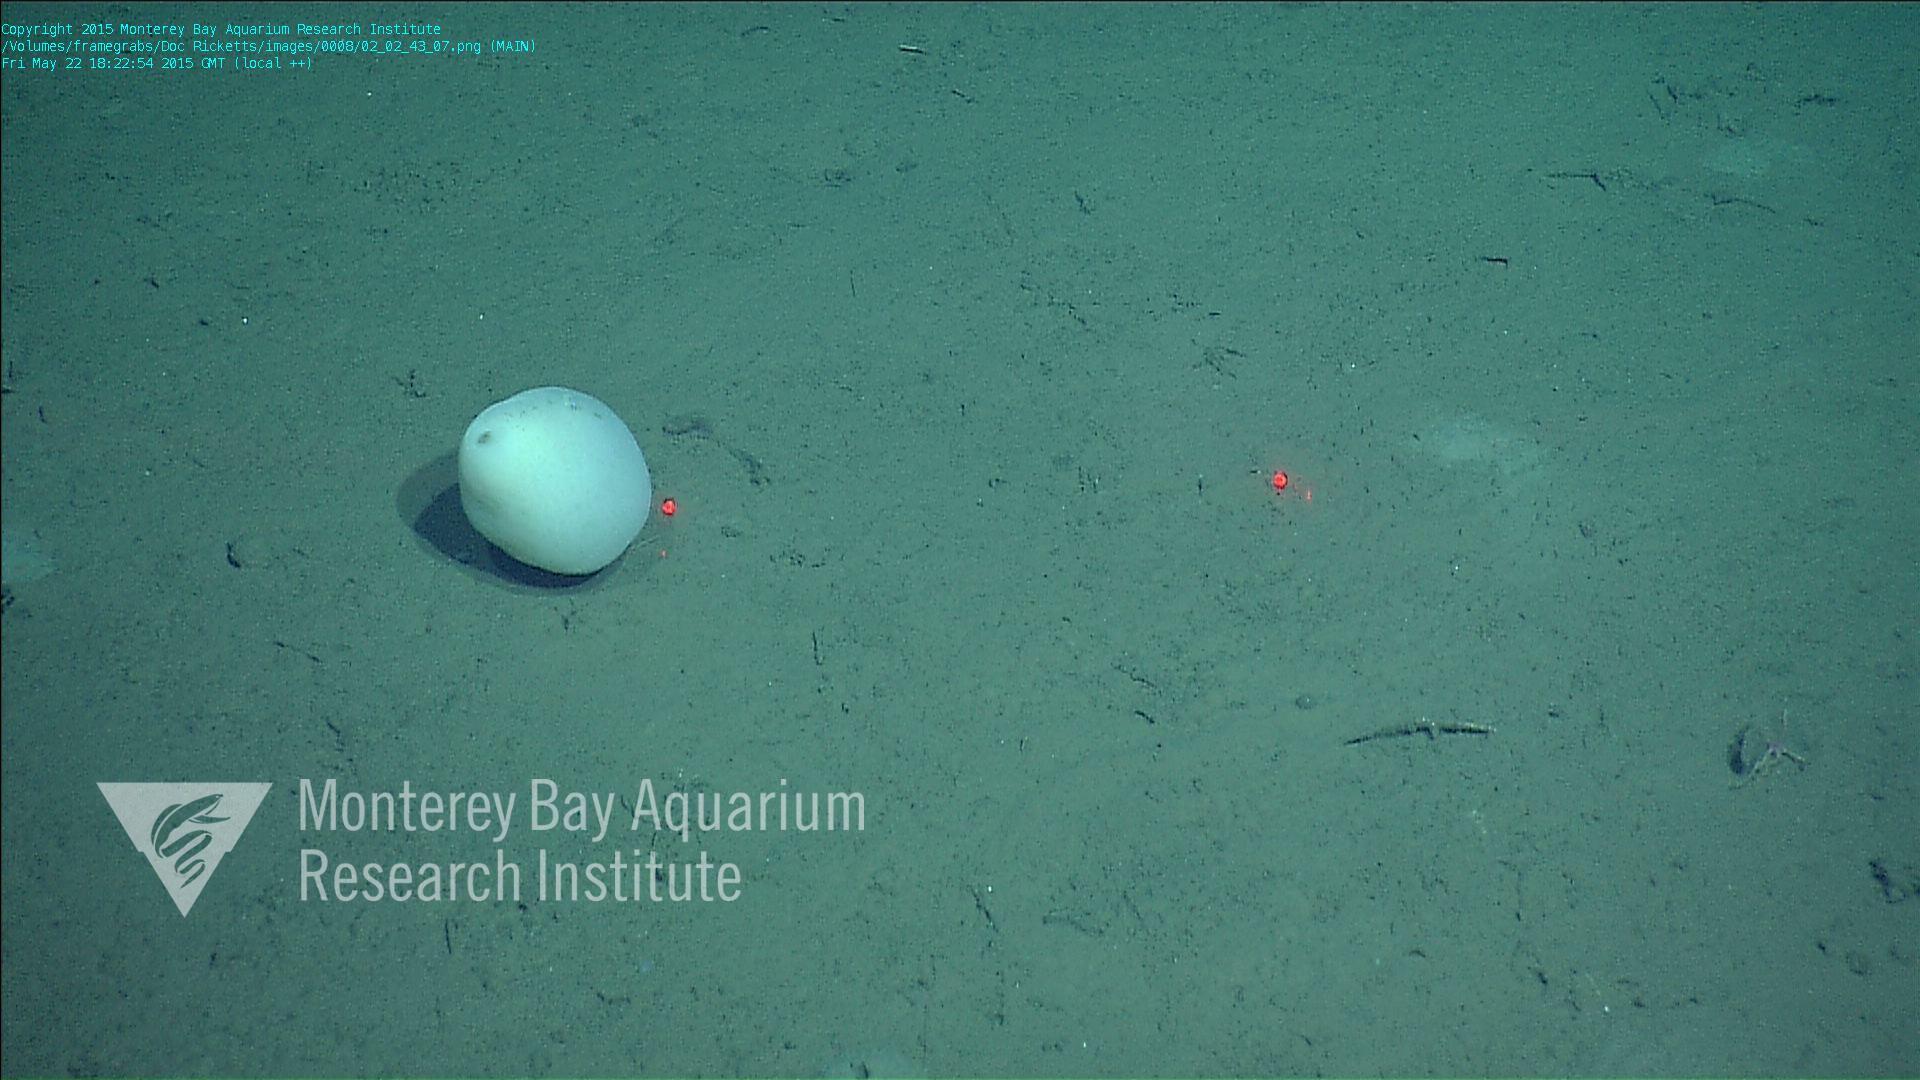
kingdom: Animalia
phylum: Porifera
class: Hexactinellida
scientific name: Hexactinellida
